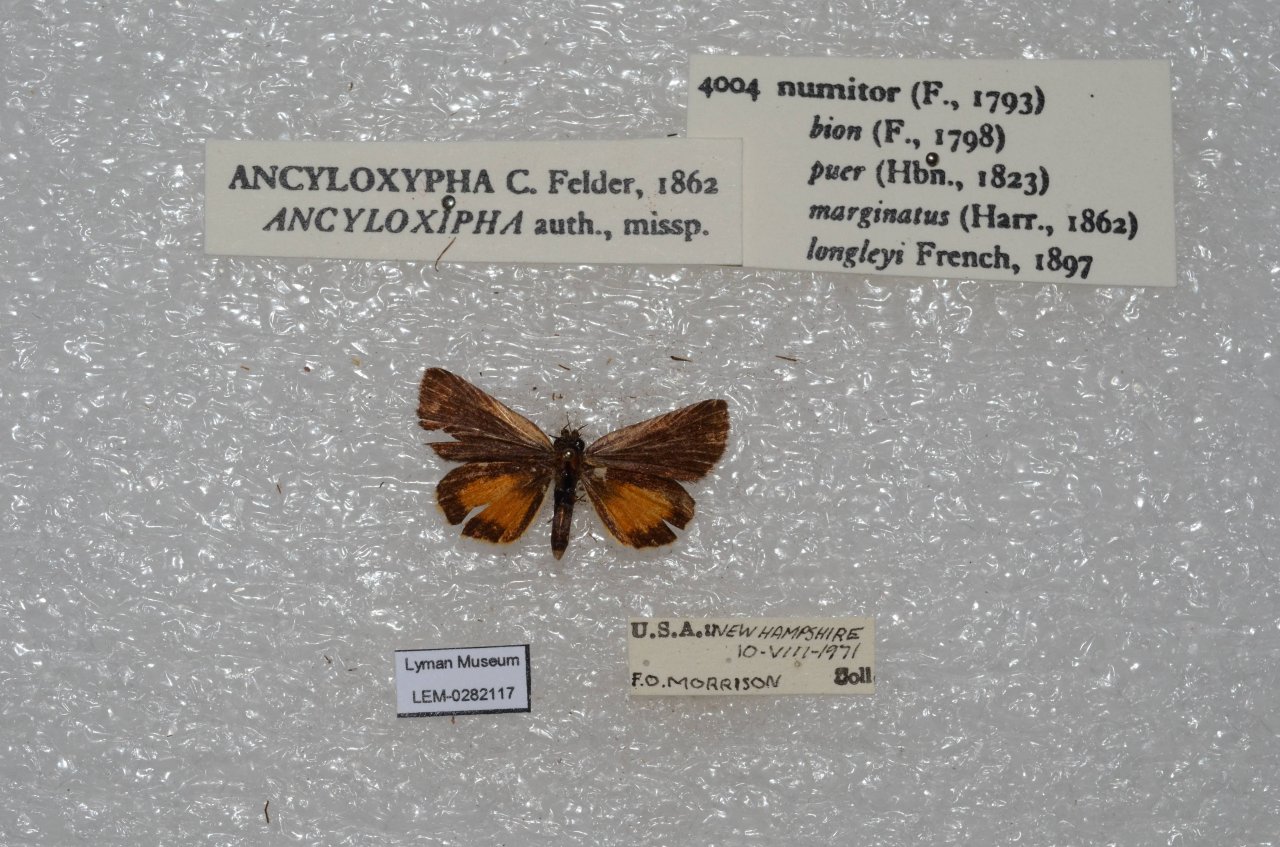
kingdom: Animalia
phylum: Arthropoda
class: Insecta
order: Lepidoptera
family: Hesperiidae
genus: Ancyloxypha
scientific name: Ancyloxypha numitor
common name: Least Skipper
